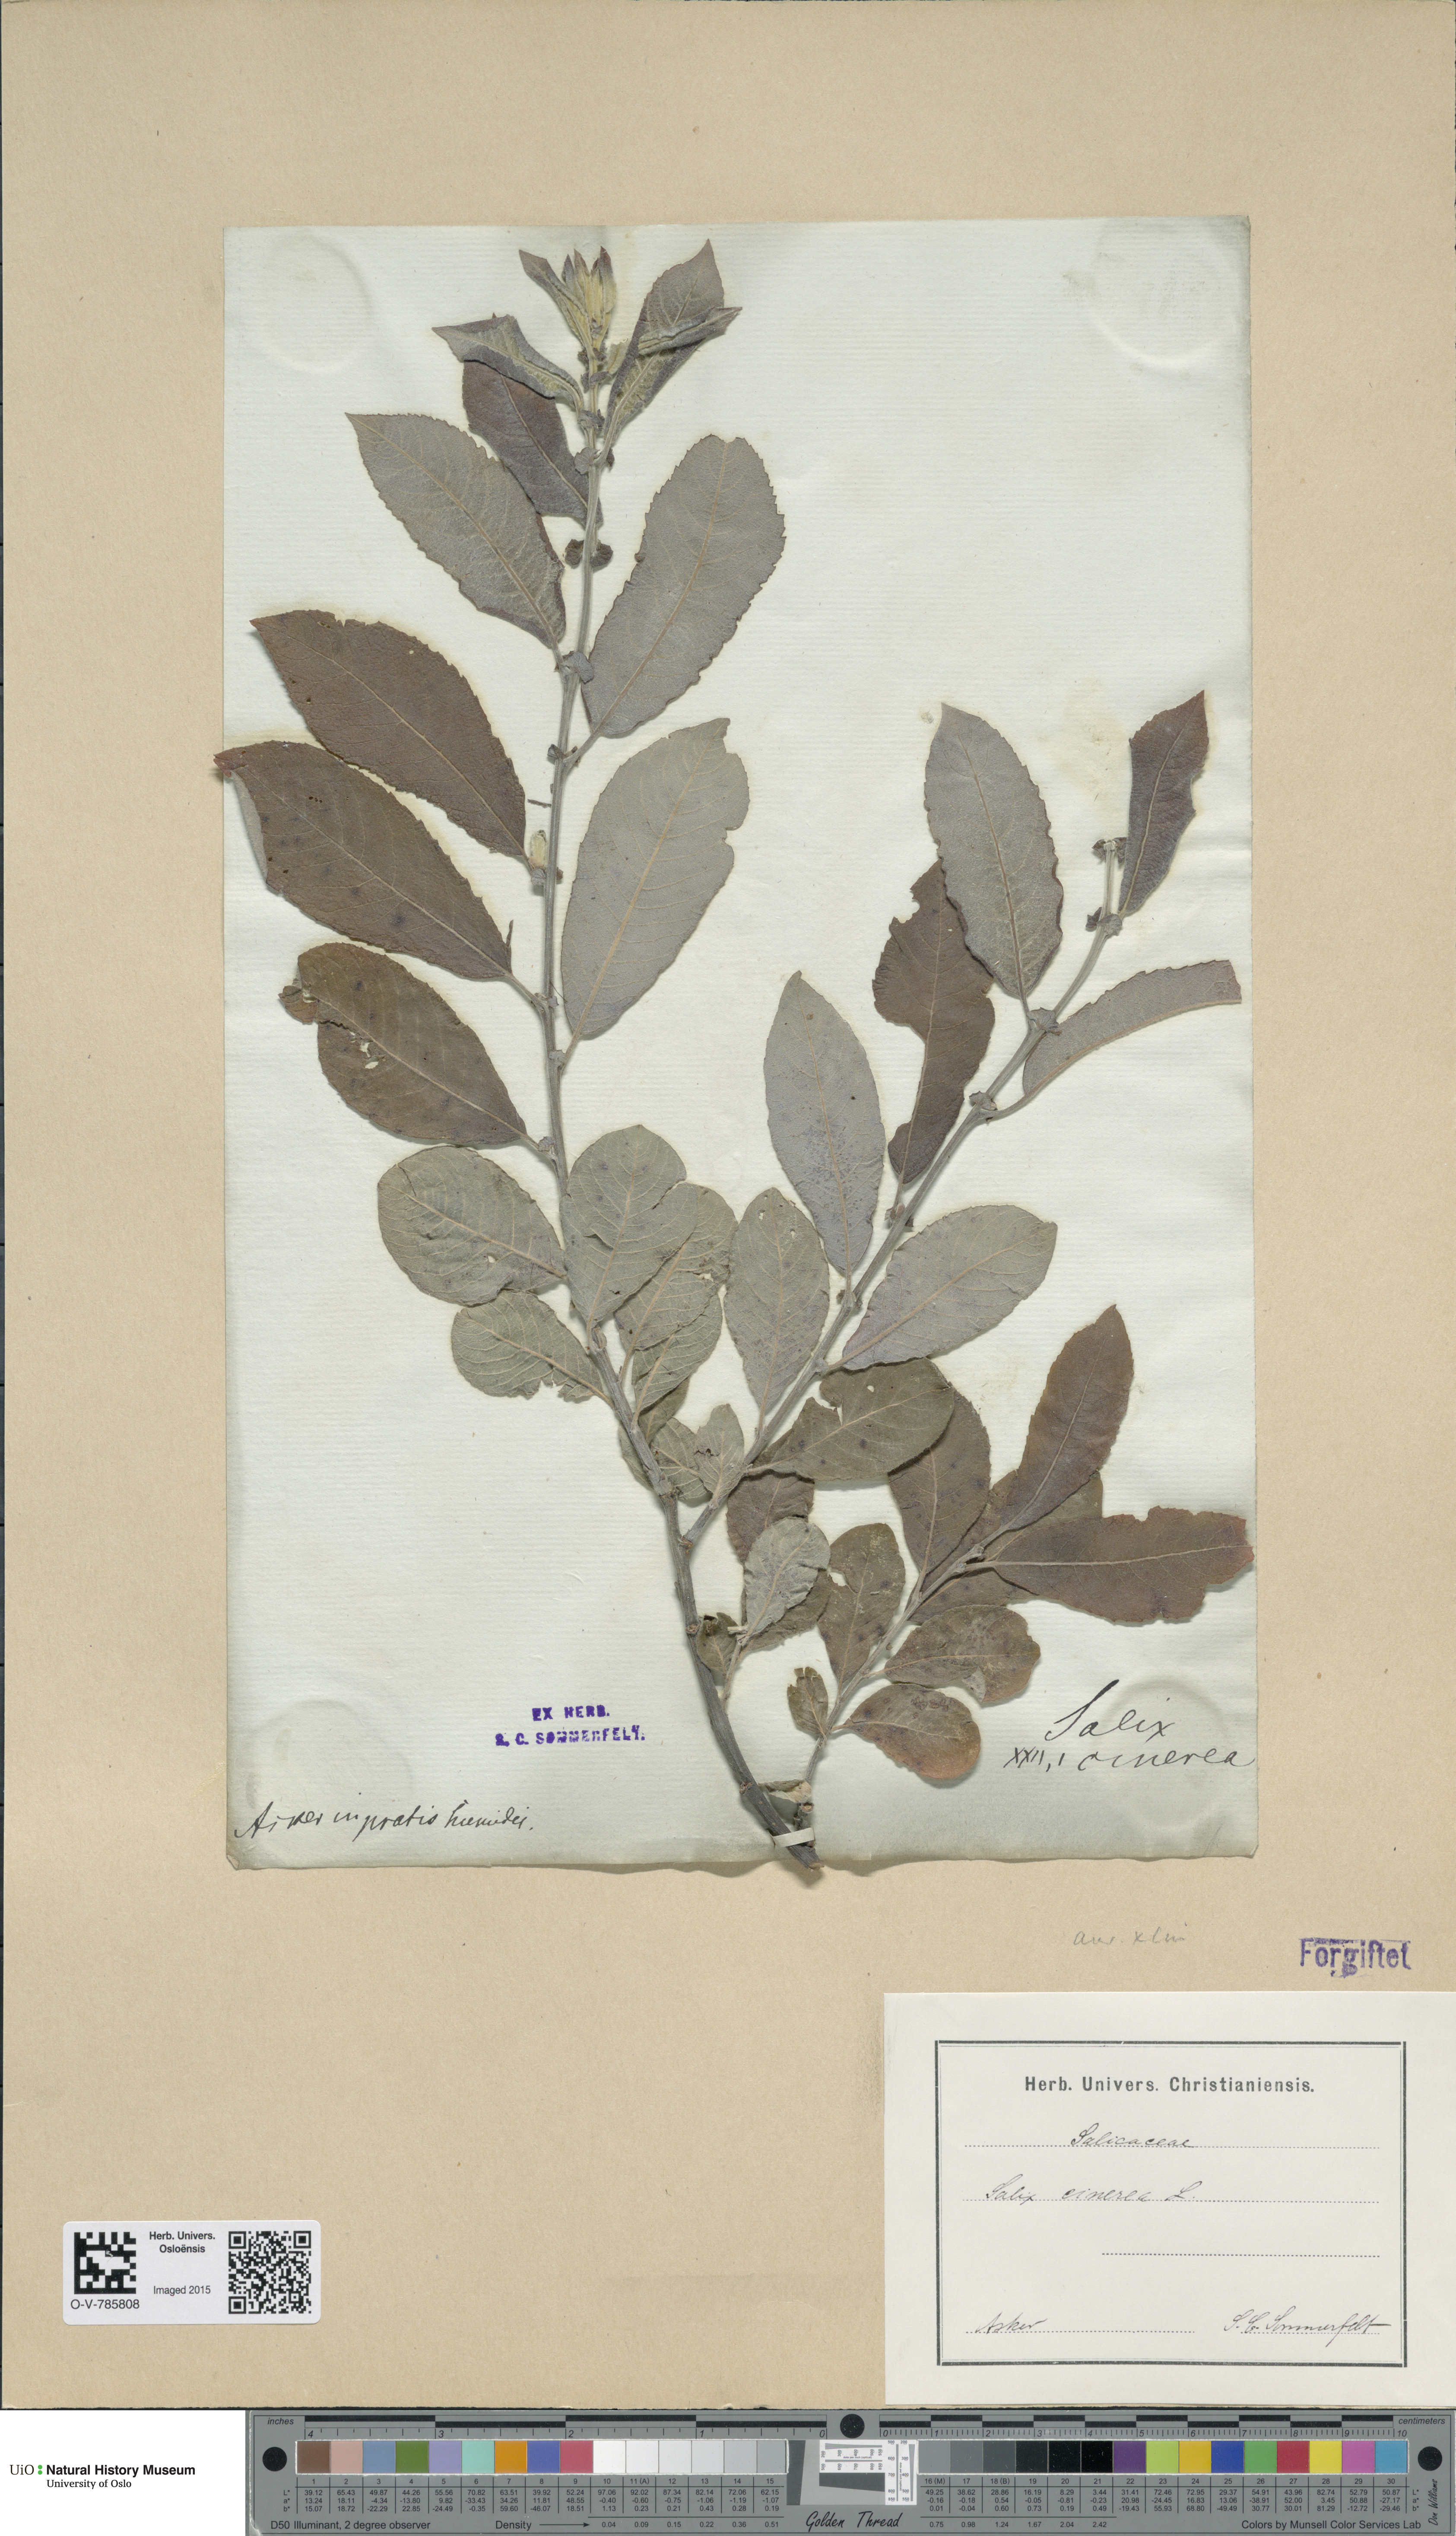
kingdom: Plantae
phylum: Tracheophyta
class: Magnoliopsida
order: Malpighiales
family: Salicaceae
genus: Salix
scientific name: Salix
